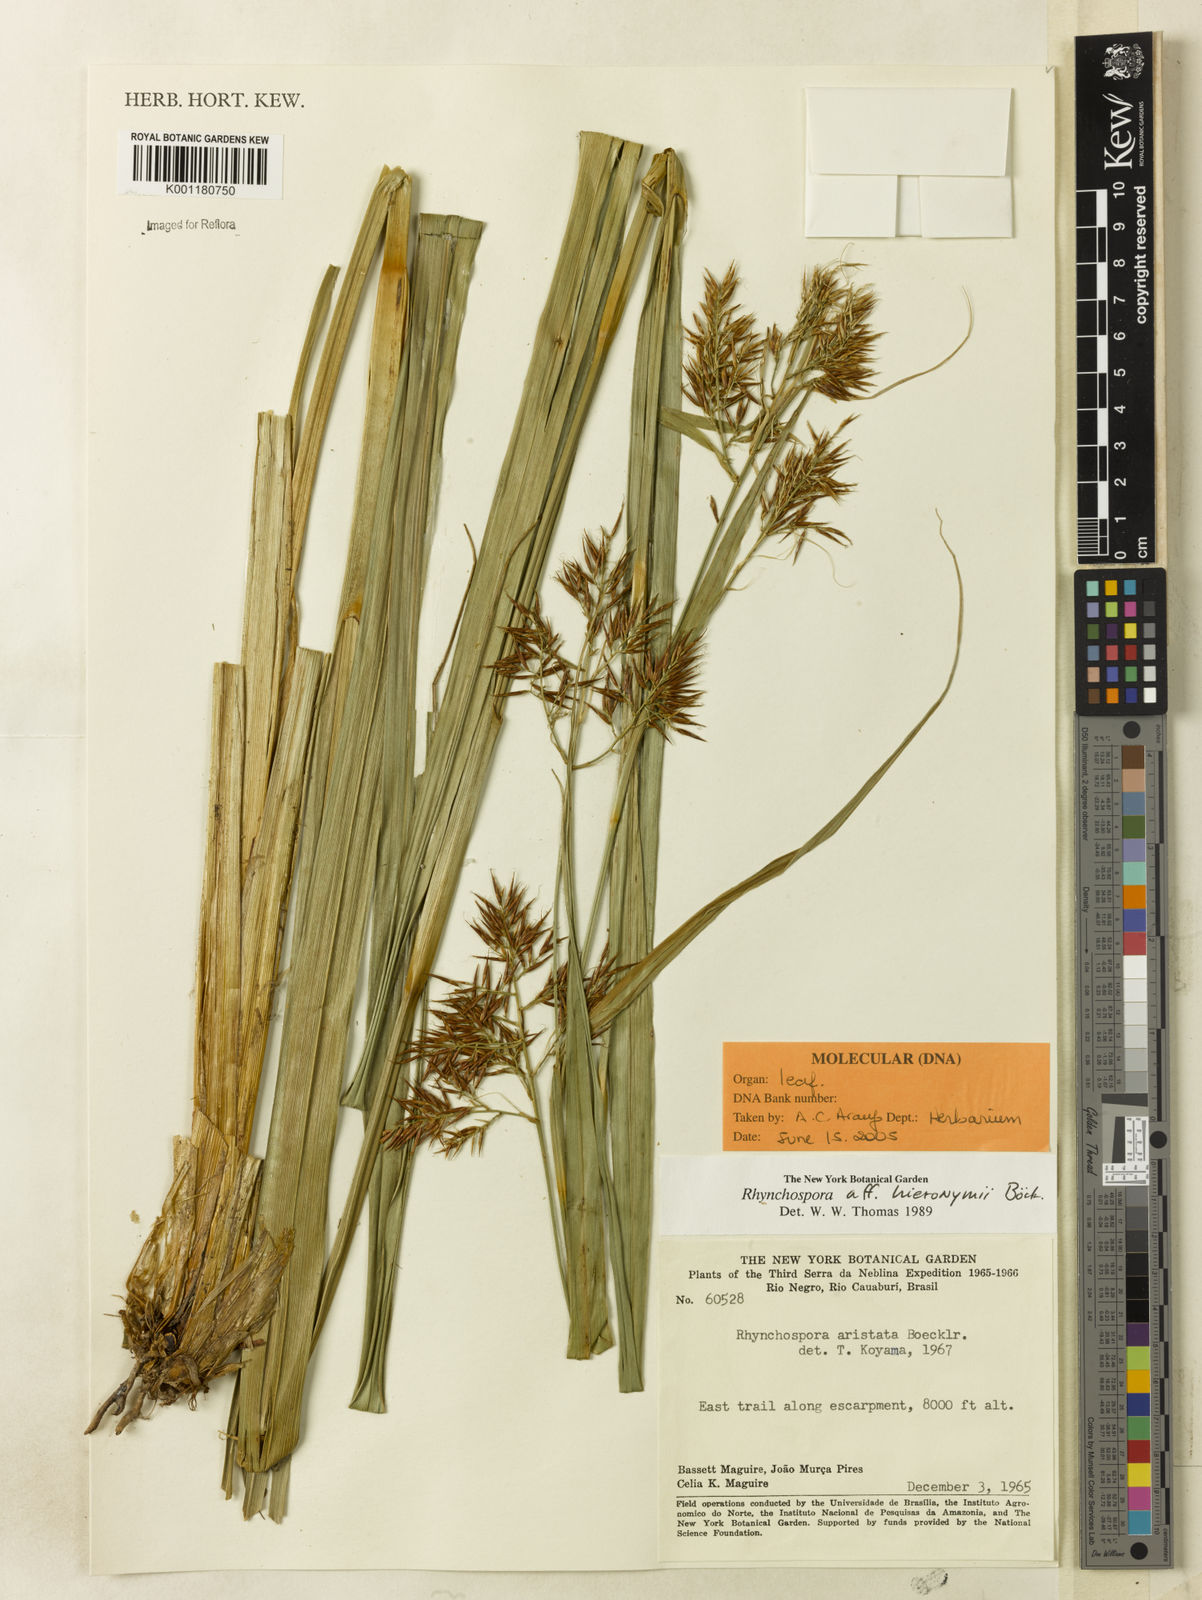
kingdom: Plantae
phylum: Tracheophyta
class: Liliopsida
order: Poales
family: Cyperaceae
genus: Rhynchospora
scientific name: Rhynchospora hieronymi
